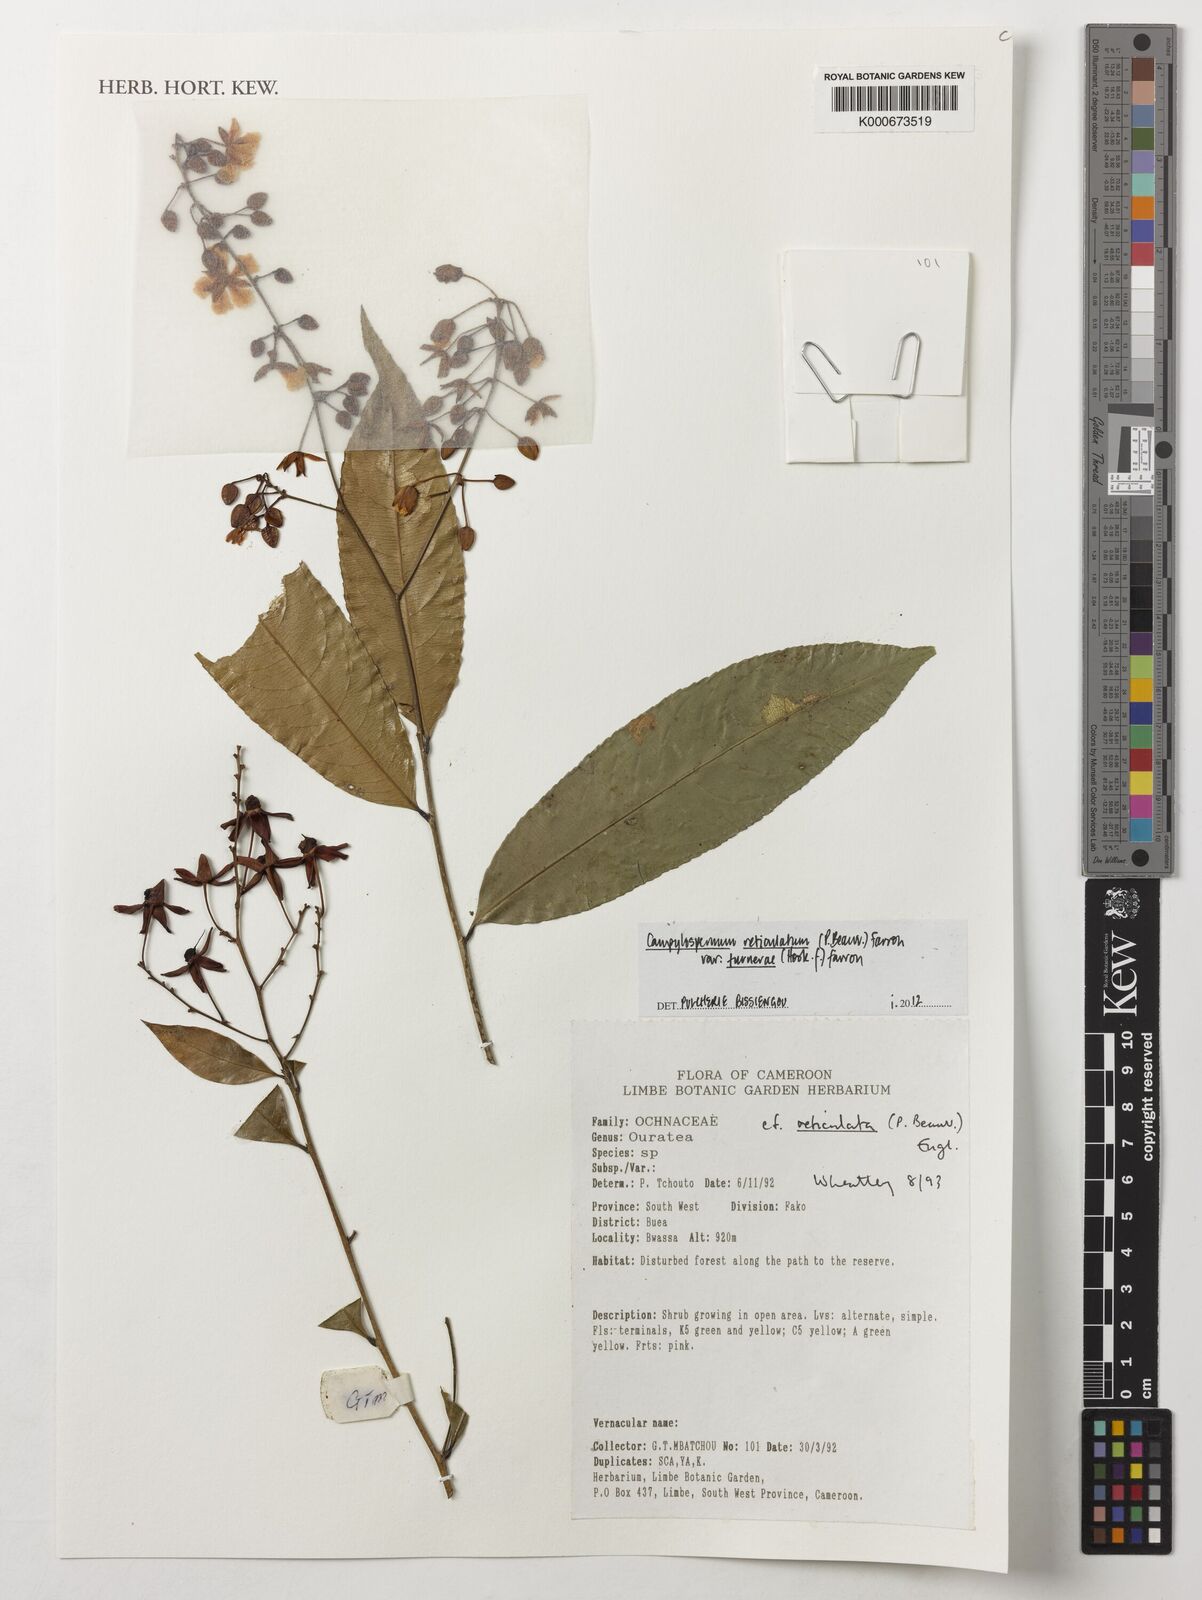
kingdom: Plantae
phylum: Tracheophyta
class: Magnoliopsida
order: Malpighiales
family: Ochnaceae
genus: Campylospermum
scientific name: Campylospermum reticulatum
